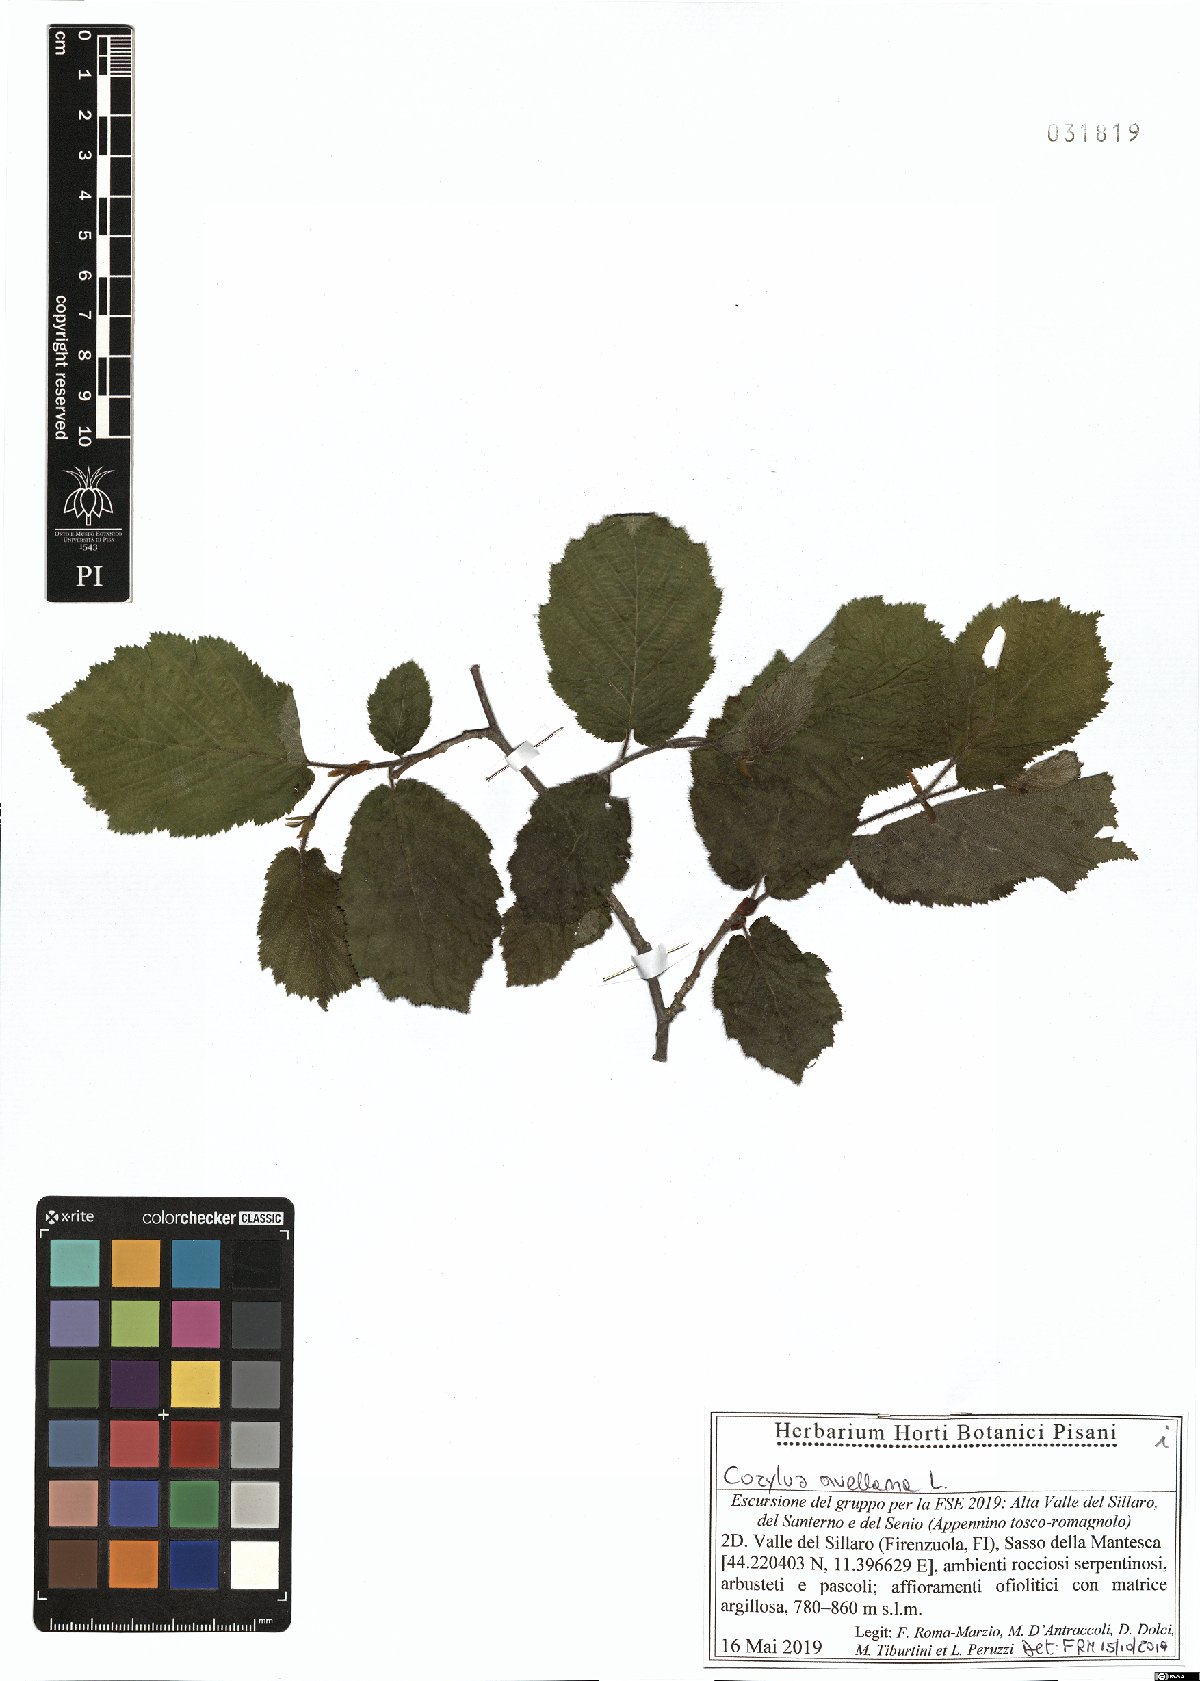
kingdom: Plantae
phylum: Tracheophyta
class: Magnoliopsida
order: Fagales
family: Betulaceae
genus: Corylus
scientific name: Corylus avellana
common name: European hazel
